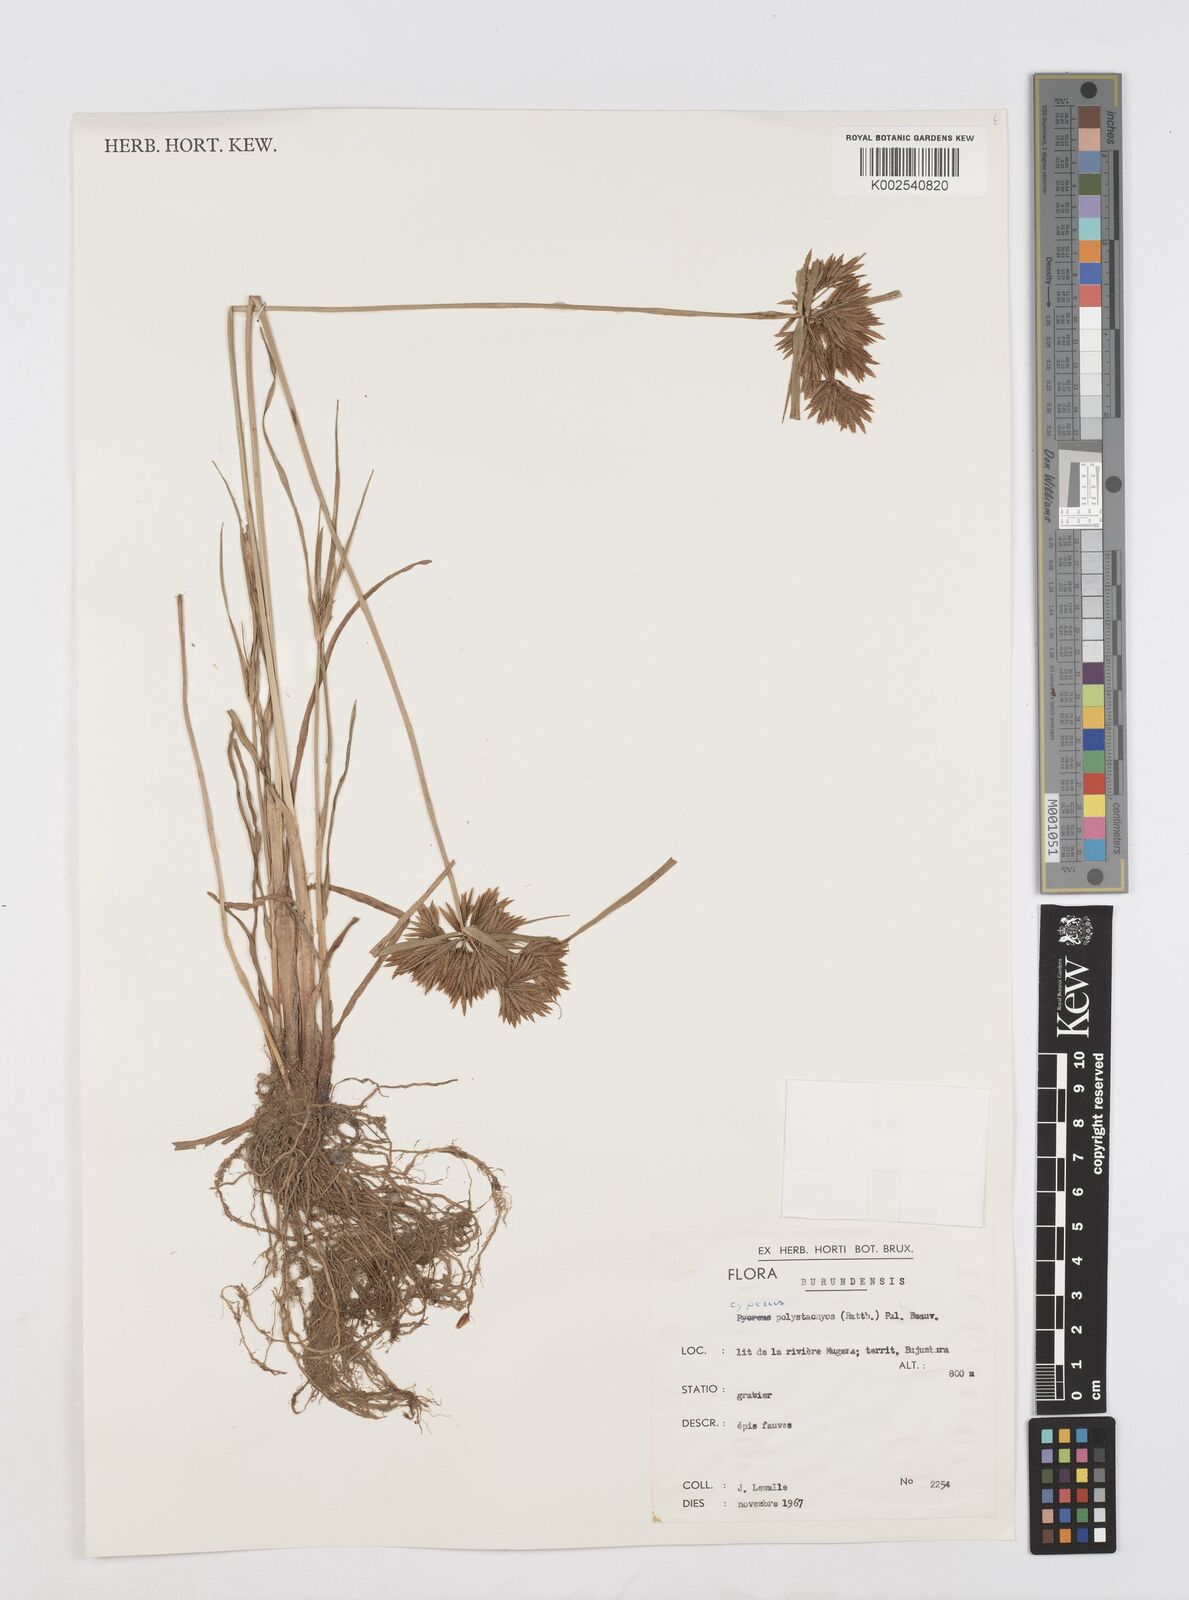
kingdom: Plantae
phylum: Tracheophyta
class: Liliopsida
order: Poales
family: Cyperaceae
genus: Cyperus
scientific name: Cyperus polystachyos
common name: Bunchy flat sedge
